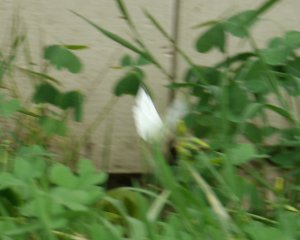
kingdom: Animalia
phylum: Arthropoda
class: Insecta
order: Lepidoptera
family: Pieridae
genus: Pieris
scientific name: Pieris rapae
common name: Cabbage White
